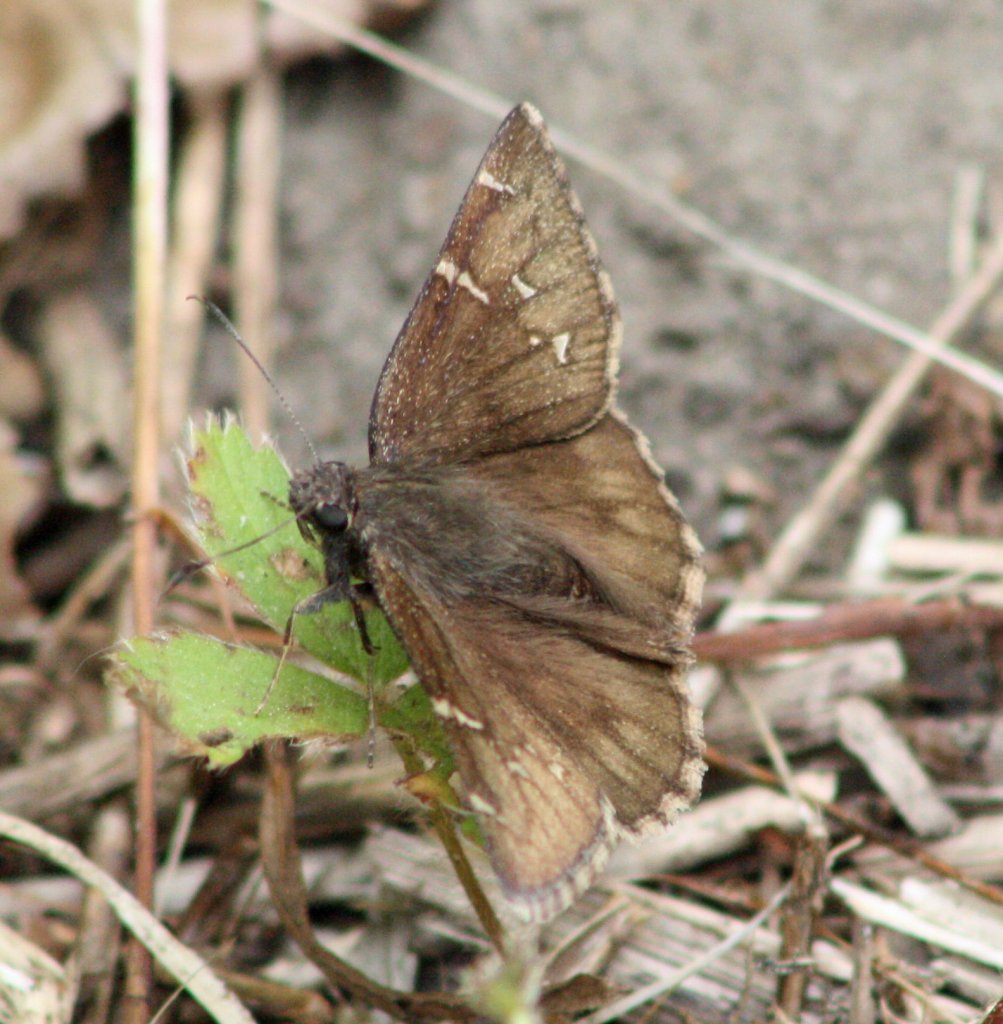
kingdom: Animalia
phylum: Arthropoda
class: Insecta
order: Lepidoptera
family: Hesperiidae
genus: Autochton
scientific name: Autochton
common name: Northern Cloudywing
